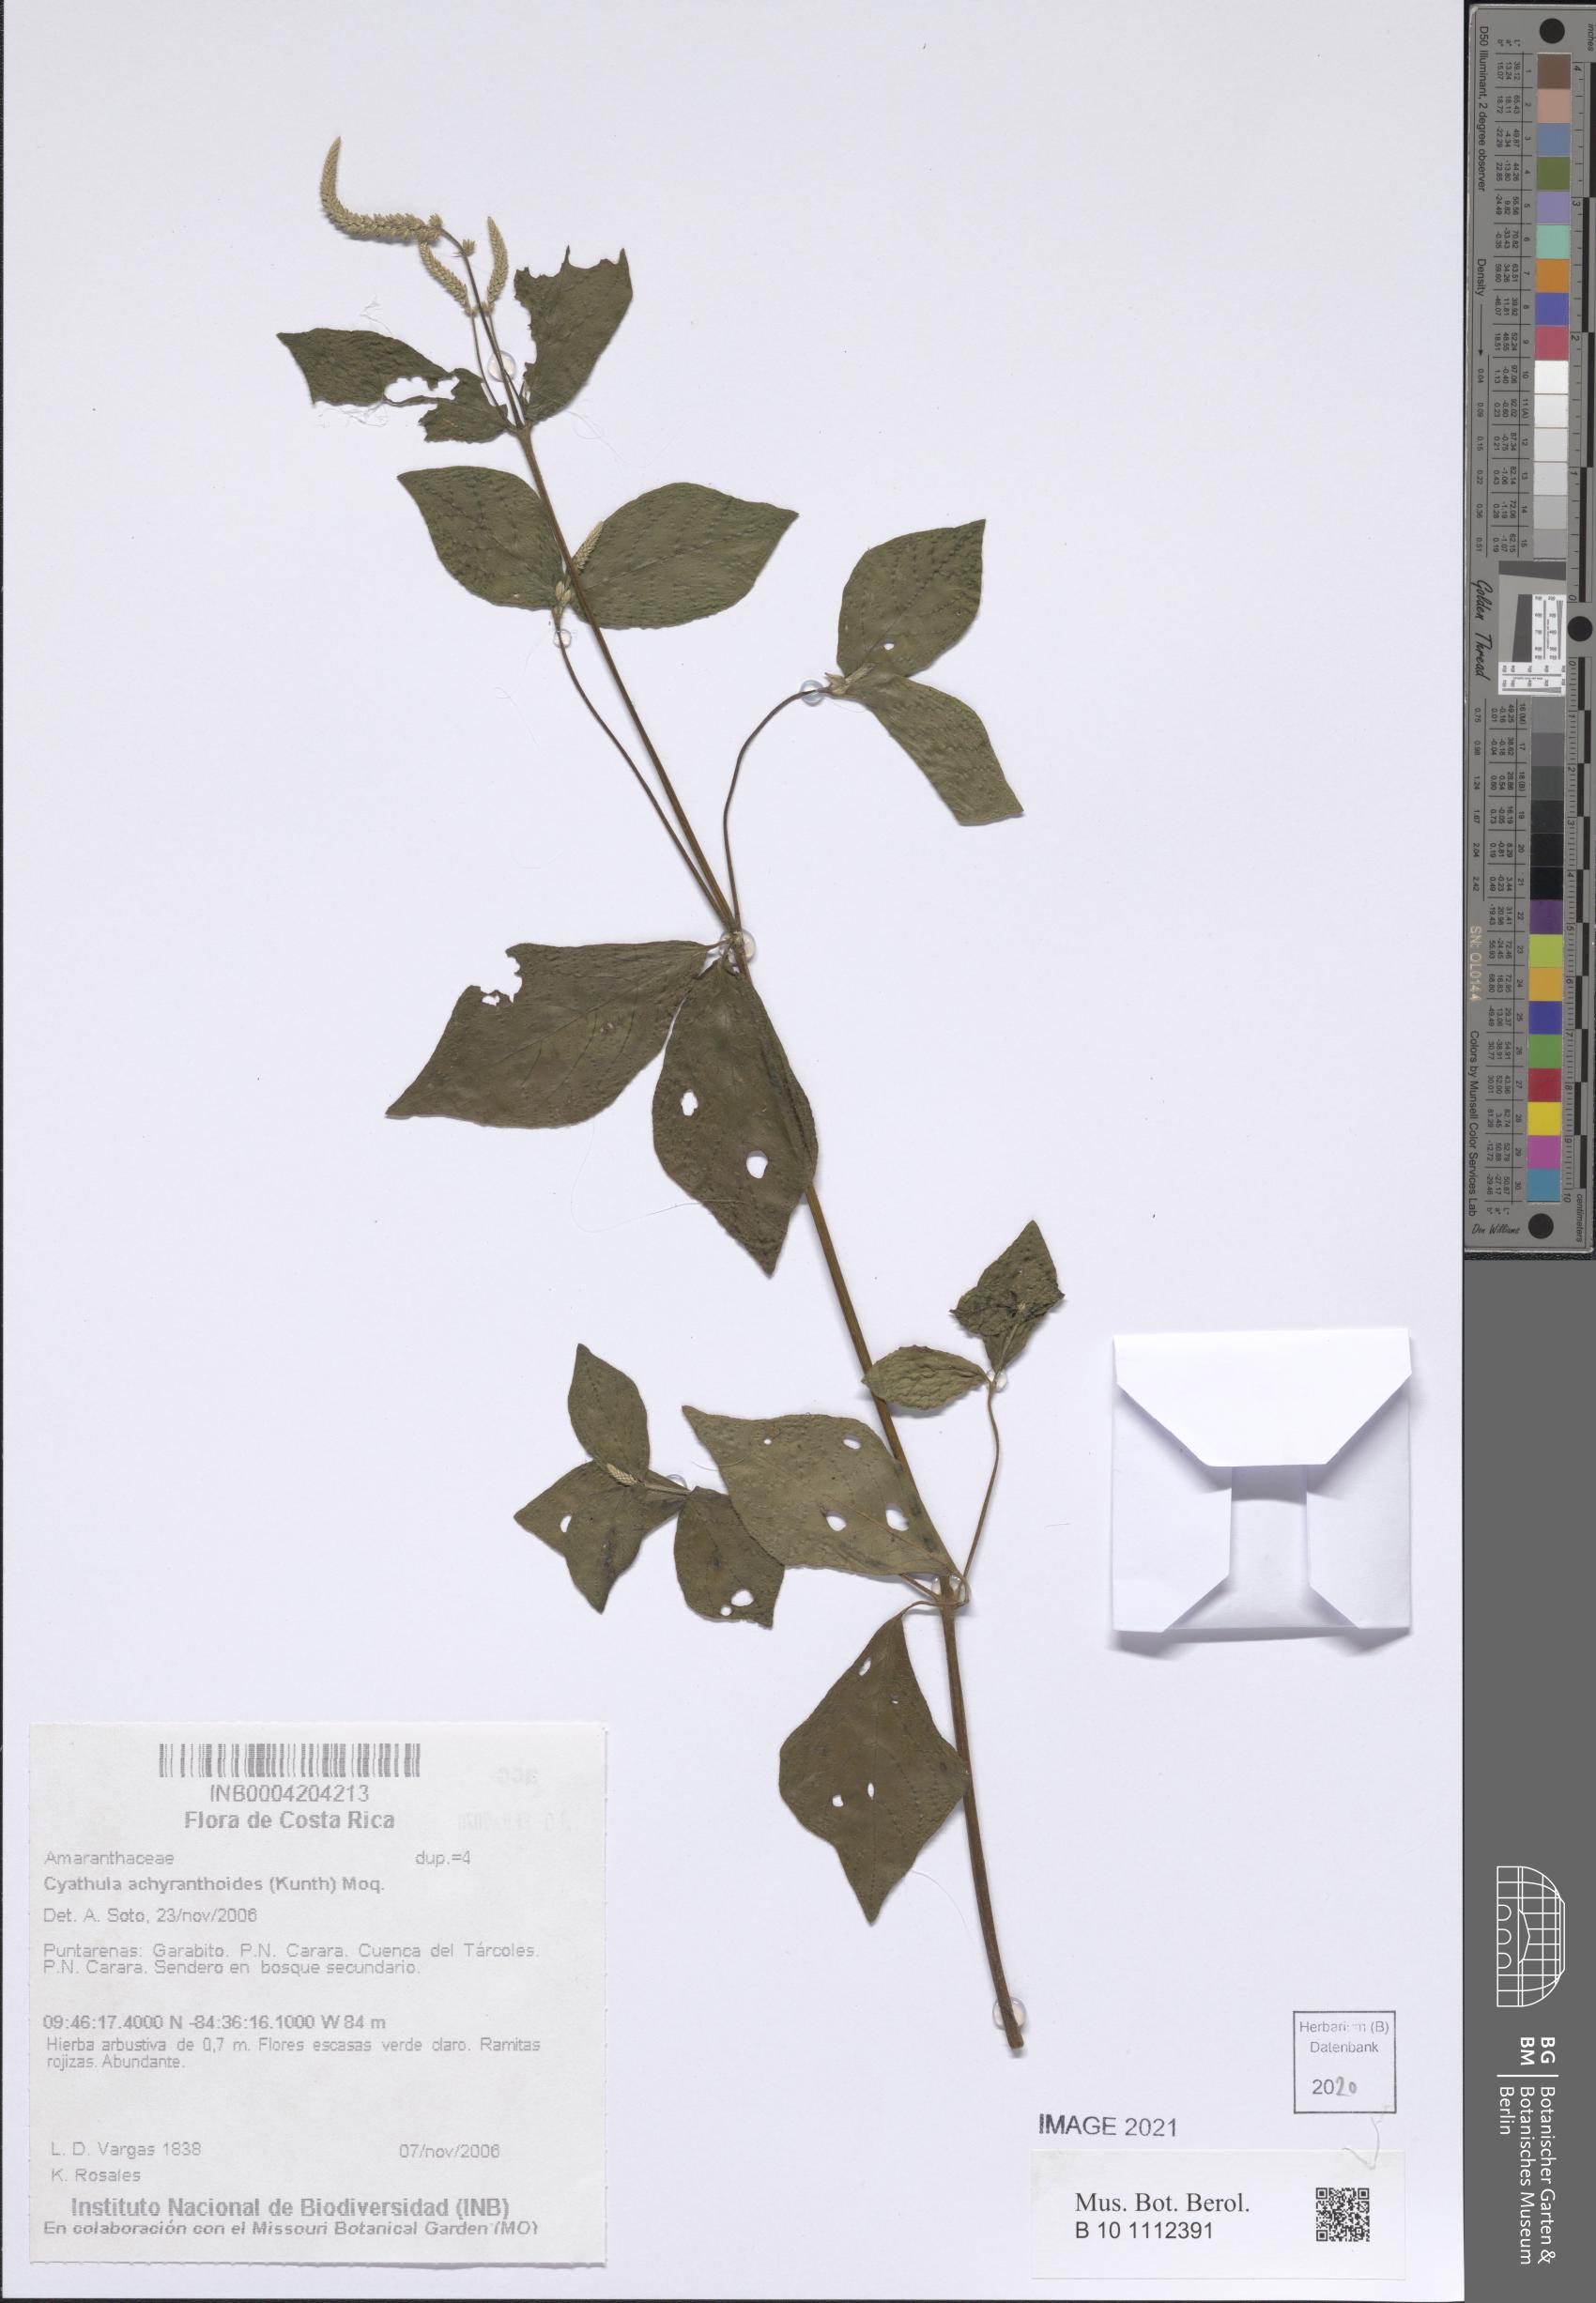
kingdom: Plantae
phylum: Tracheophyta
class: Magnoliopsida
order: Caryophyllales
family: Amaranthaceae
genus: Cyathula
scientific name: Cyathula achyranthoides
